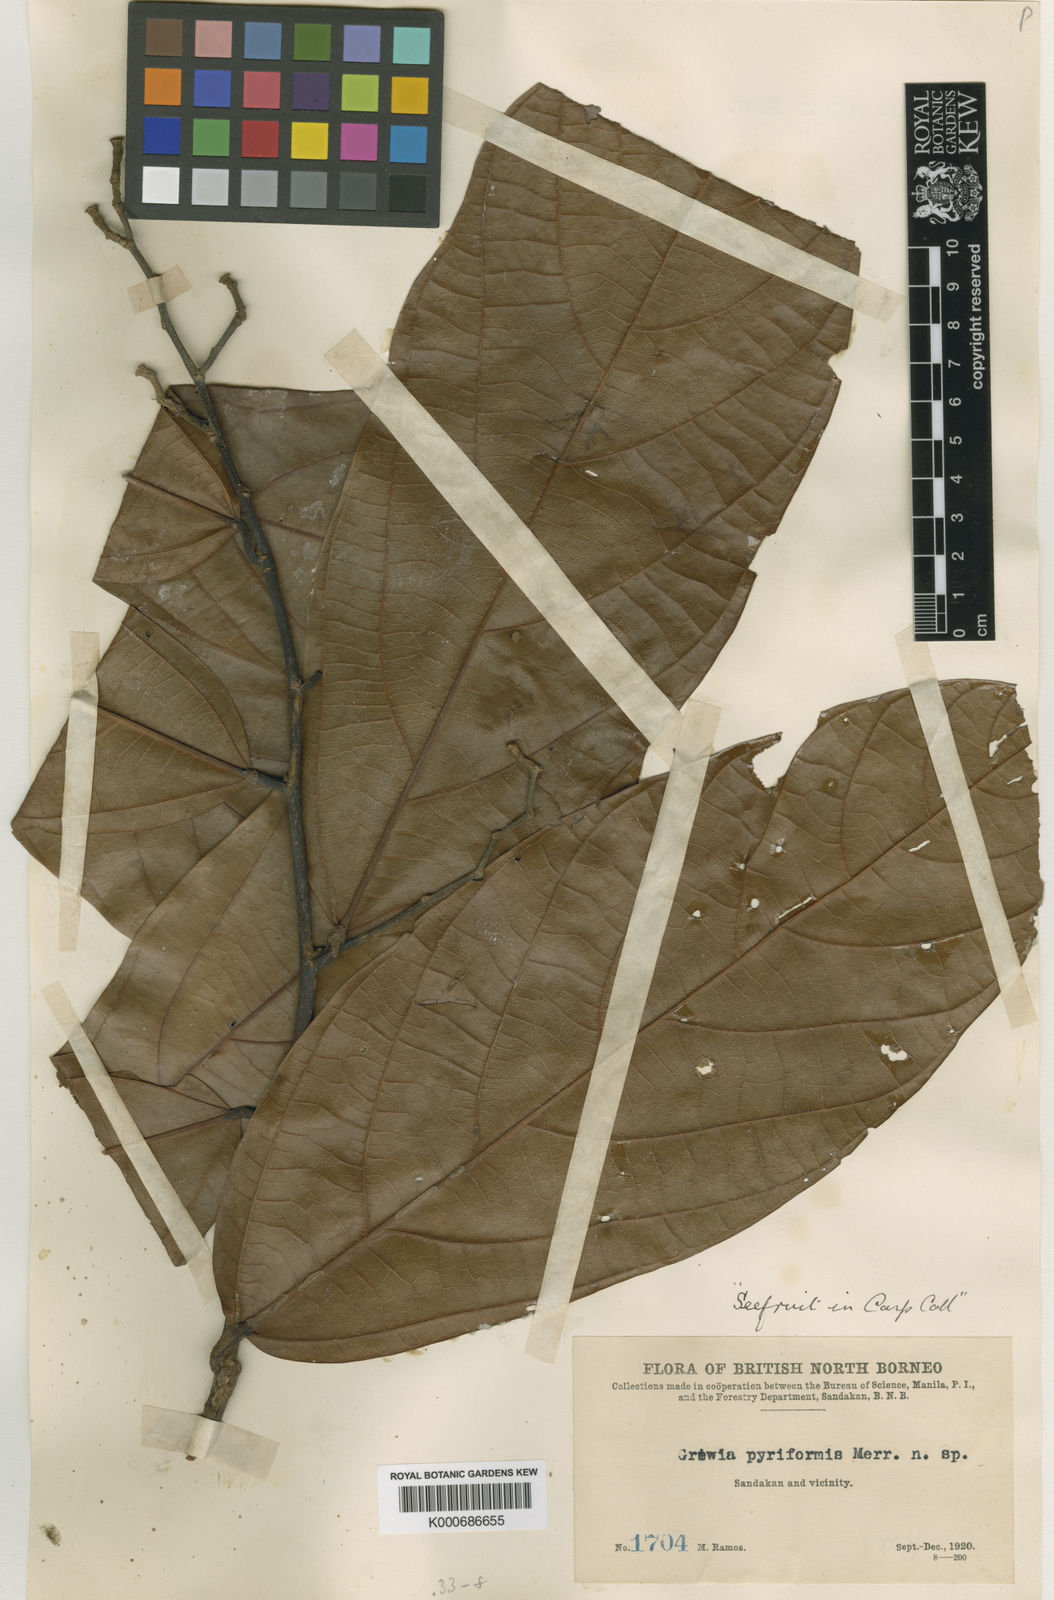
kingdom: Plantae
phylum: Tracheophyta
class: Magnoliopsida
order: Malvales
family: Malvaceae
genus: Microcos
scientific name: Microcos crassifolia
